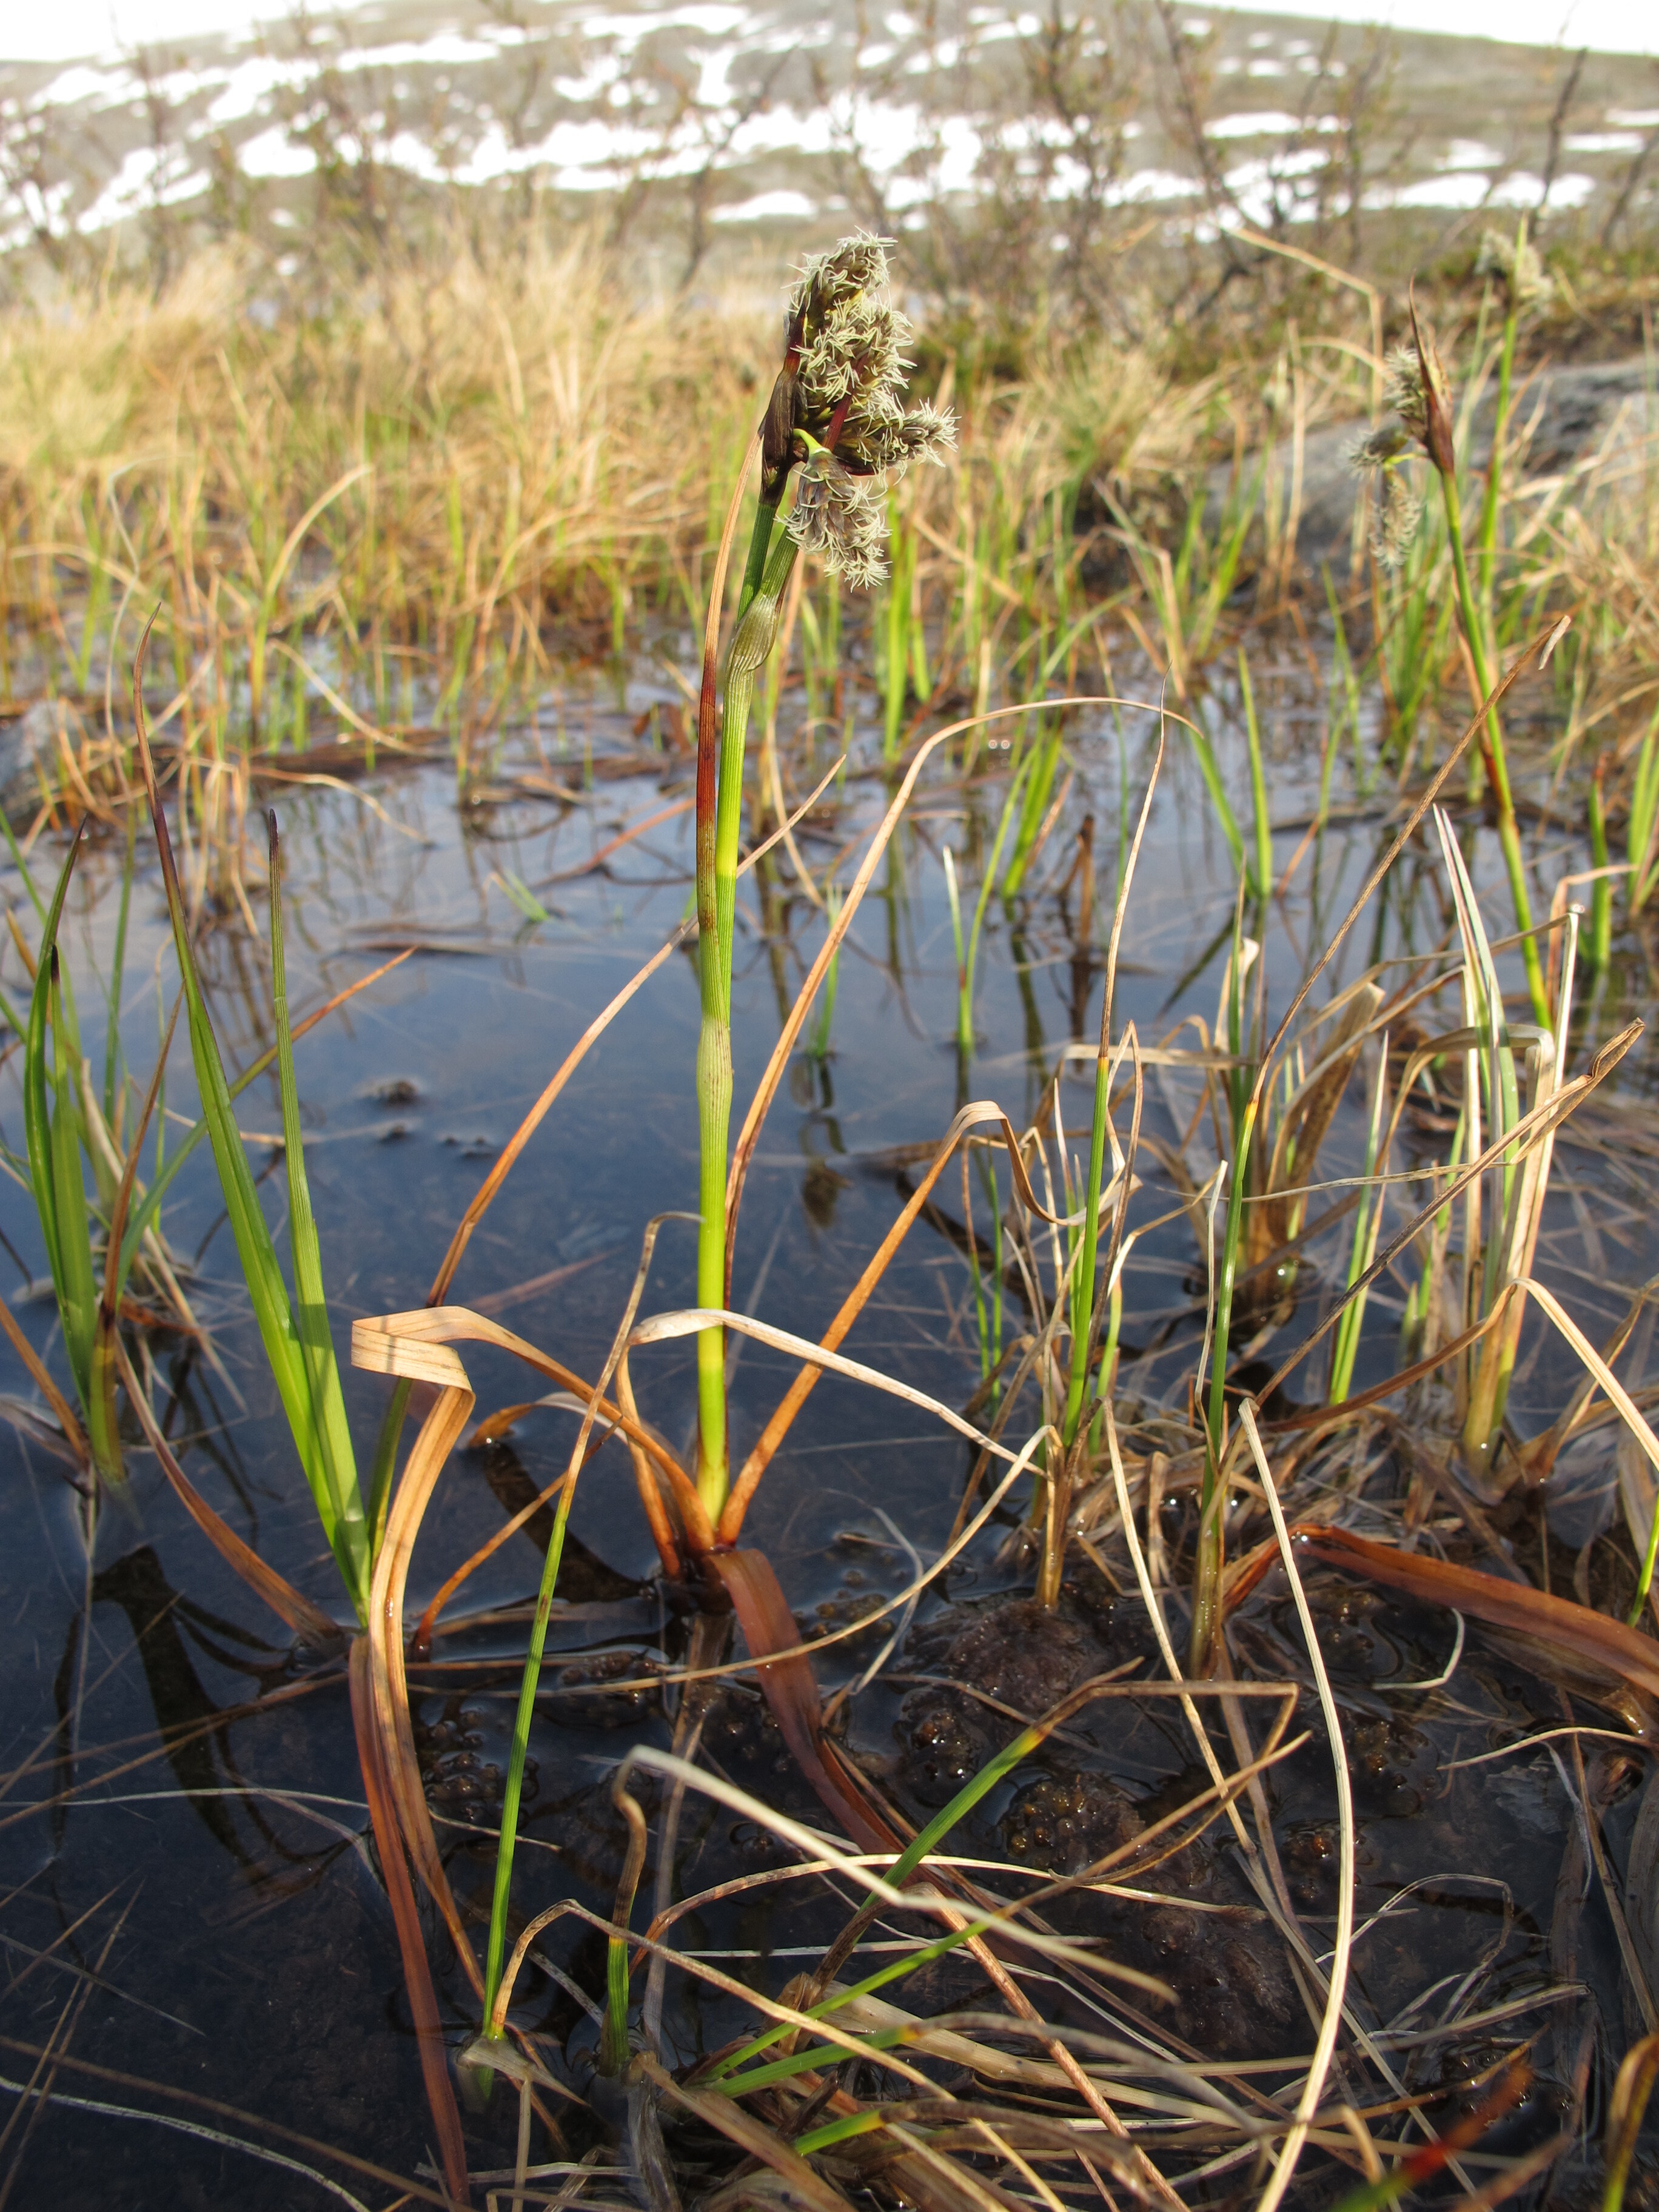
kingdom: Plantae
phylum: Tracheophyta
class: Liliopsida
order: Poales
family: Cyperaceae
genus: Eriophorum
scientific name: Eriophorum angustifolium
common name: Common cottongrass
